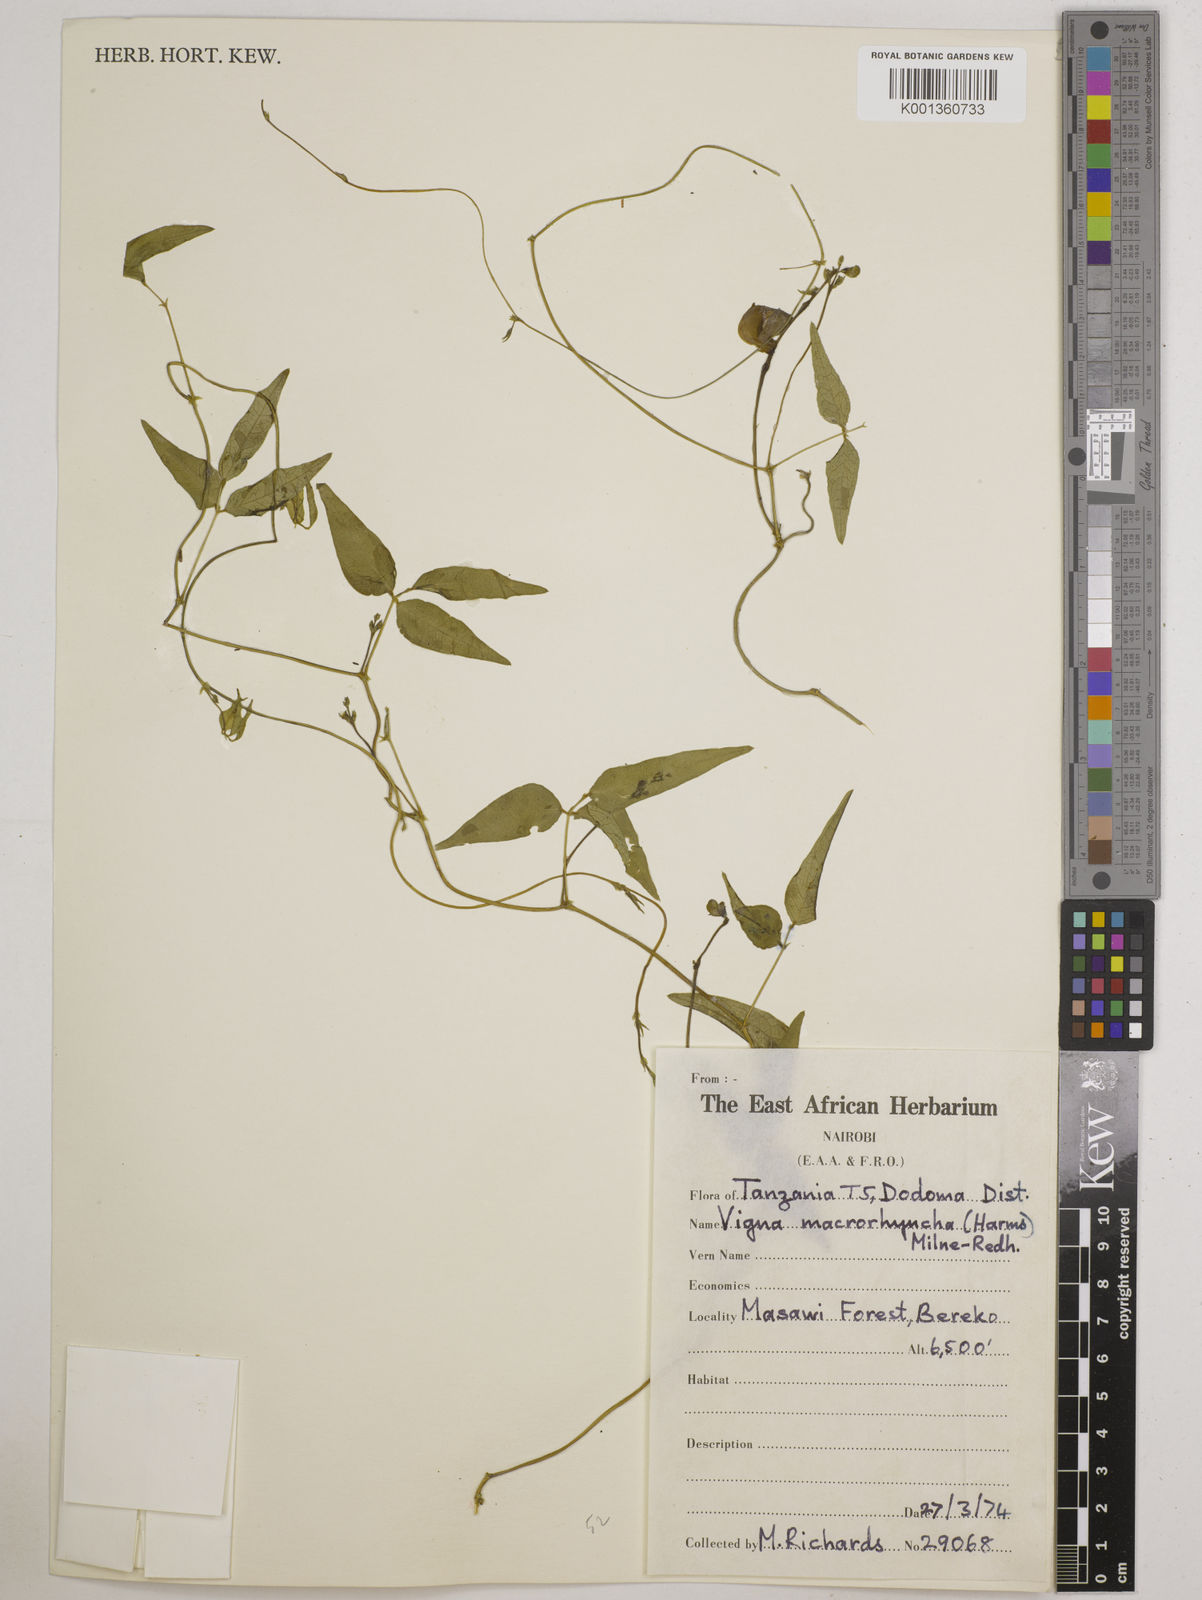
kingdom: Plantae
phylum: Tracheophyta
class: Magnoliopsida
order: Fabales
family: Fabaceae
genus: Wajira
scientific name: Wajira grahamiana
